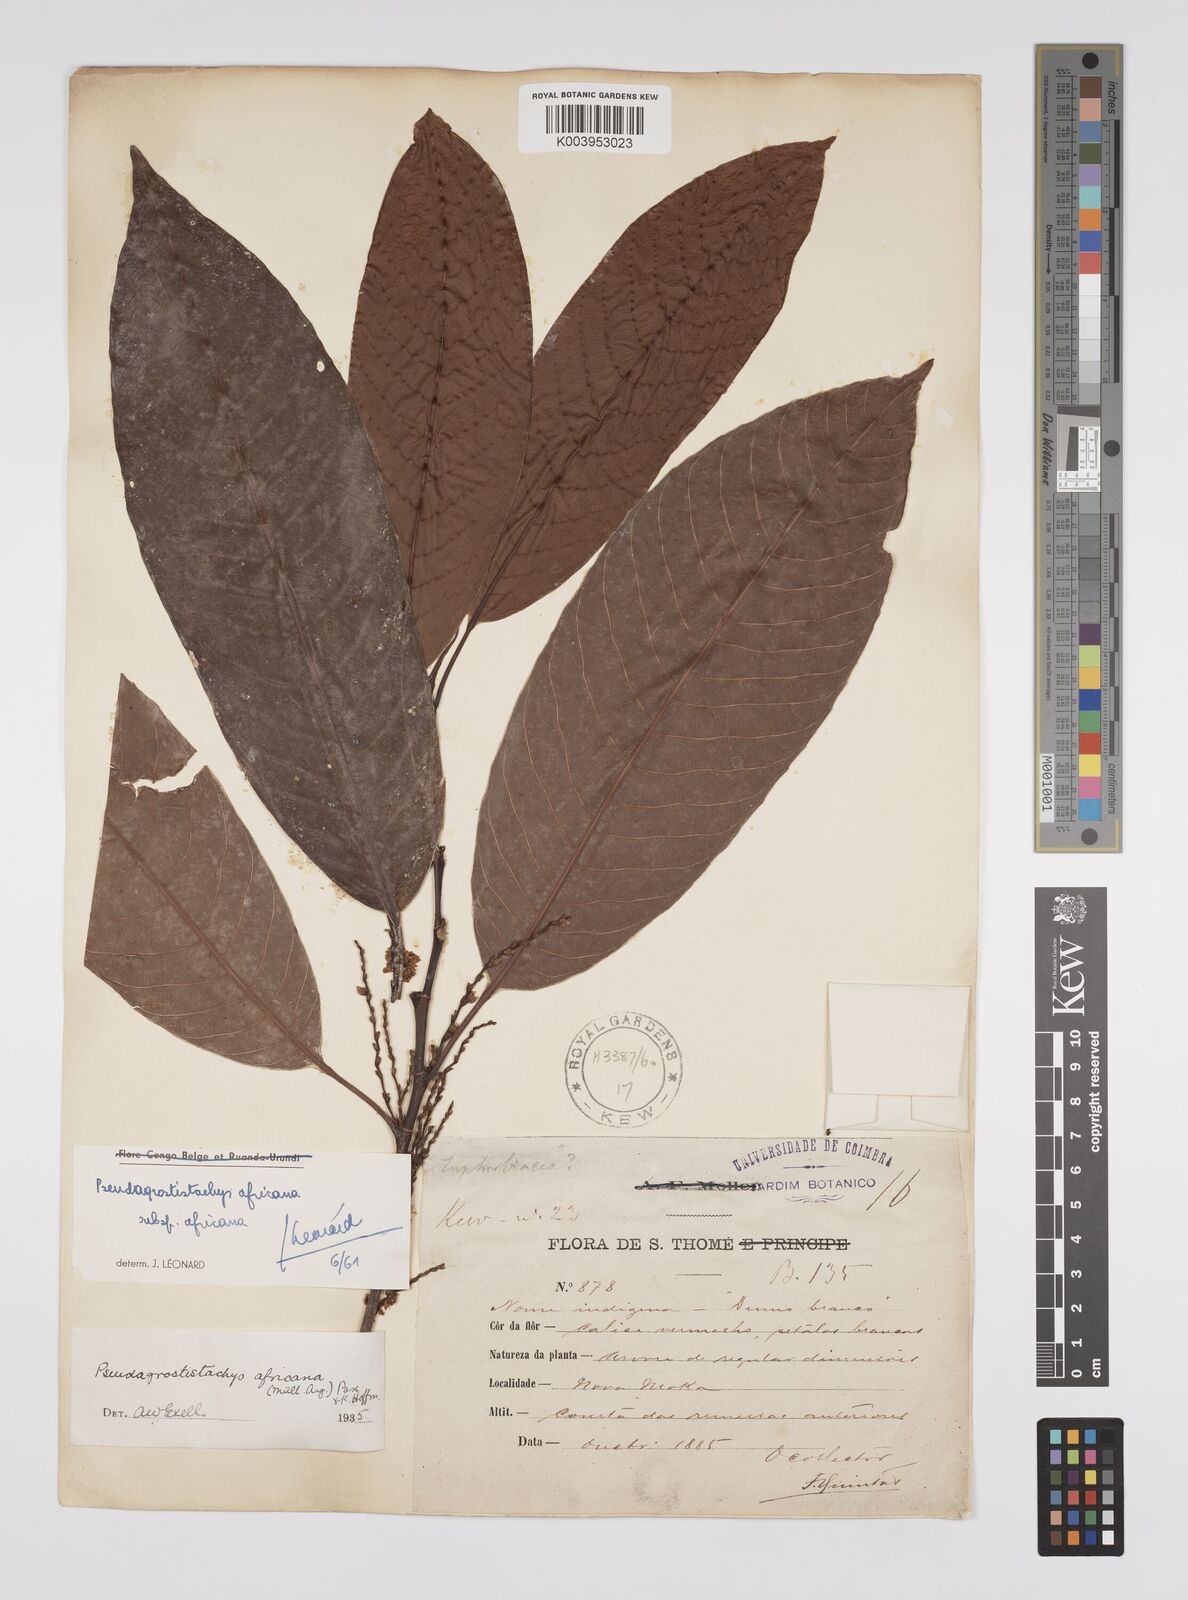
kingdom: Plantae
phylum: Tracheophyta
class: Magnoliopsida
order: Malpighiales
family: Euphorbiaceae
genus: Pseudagrostistachys
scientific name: Pseudagrostistachys africana
